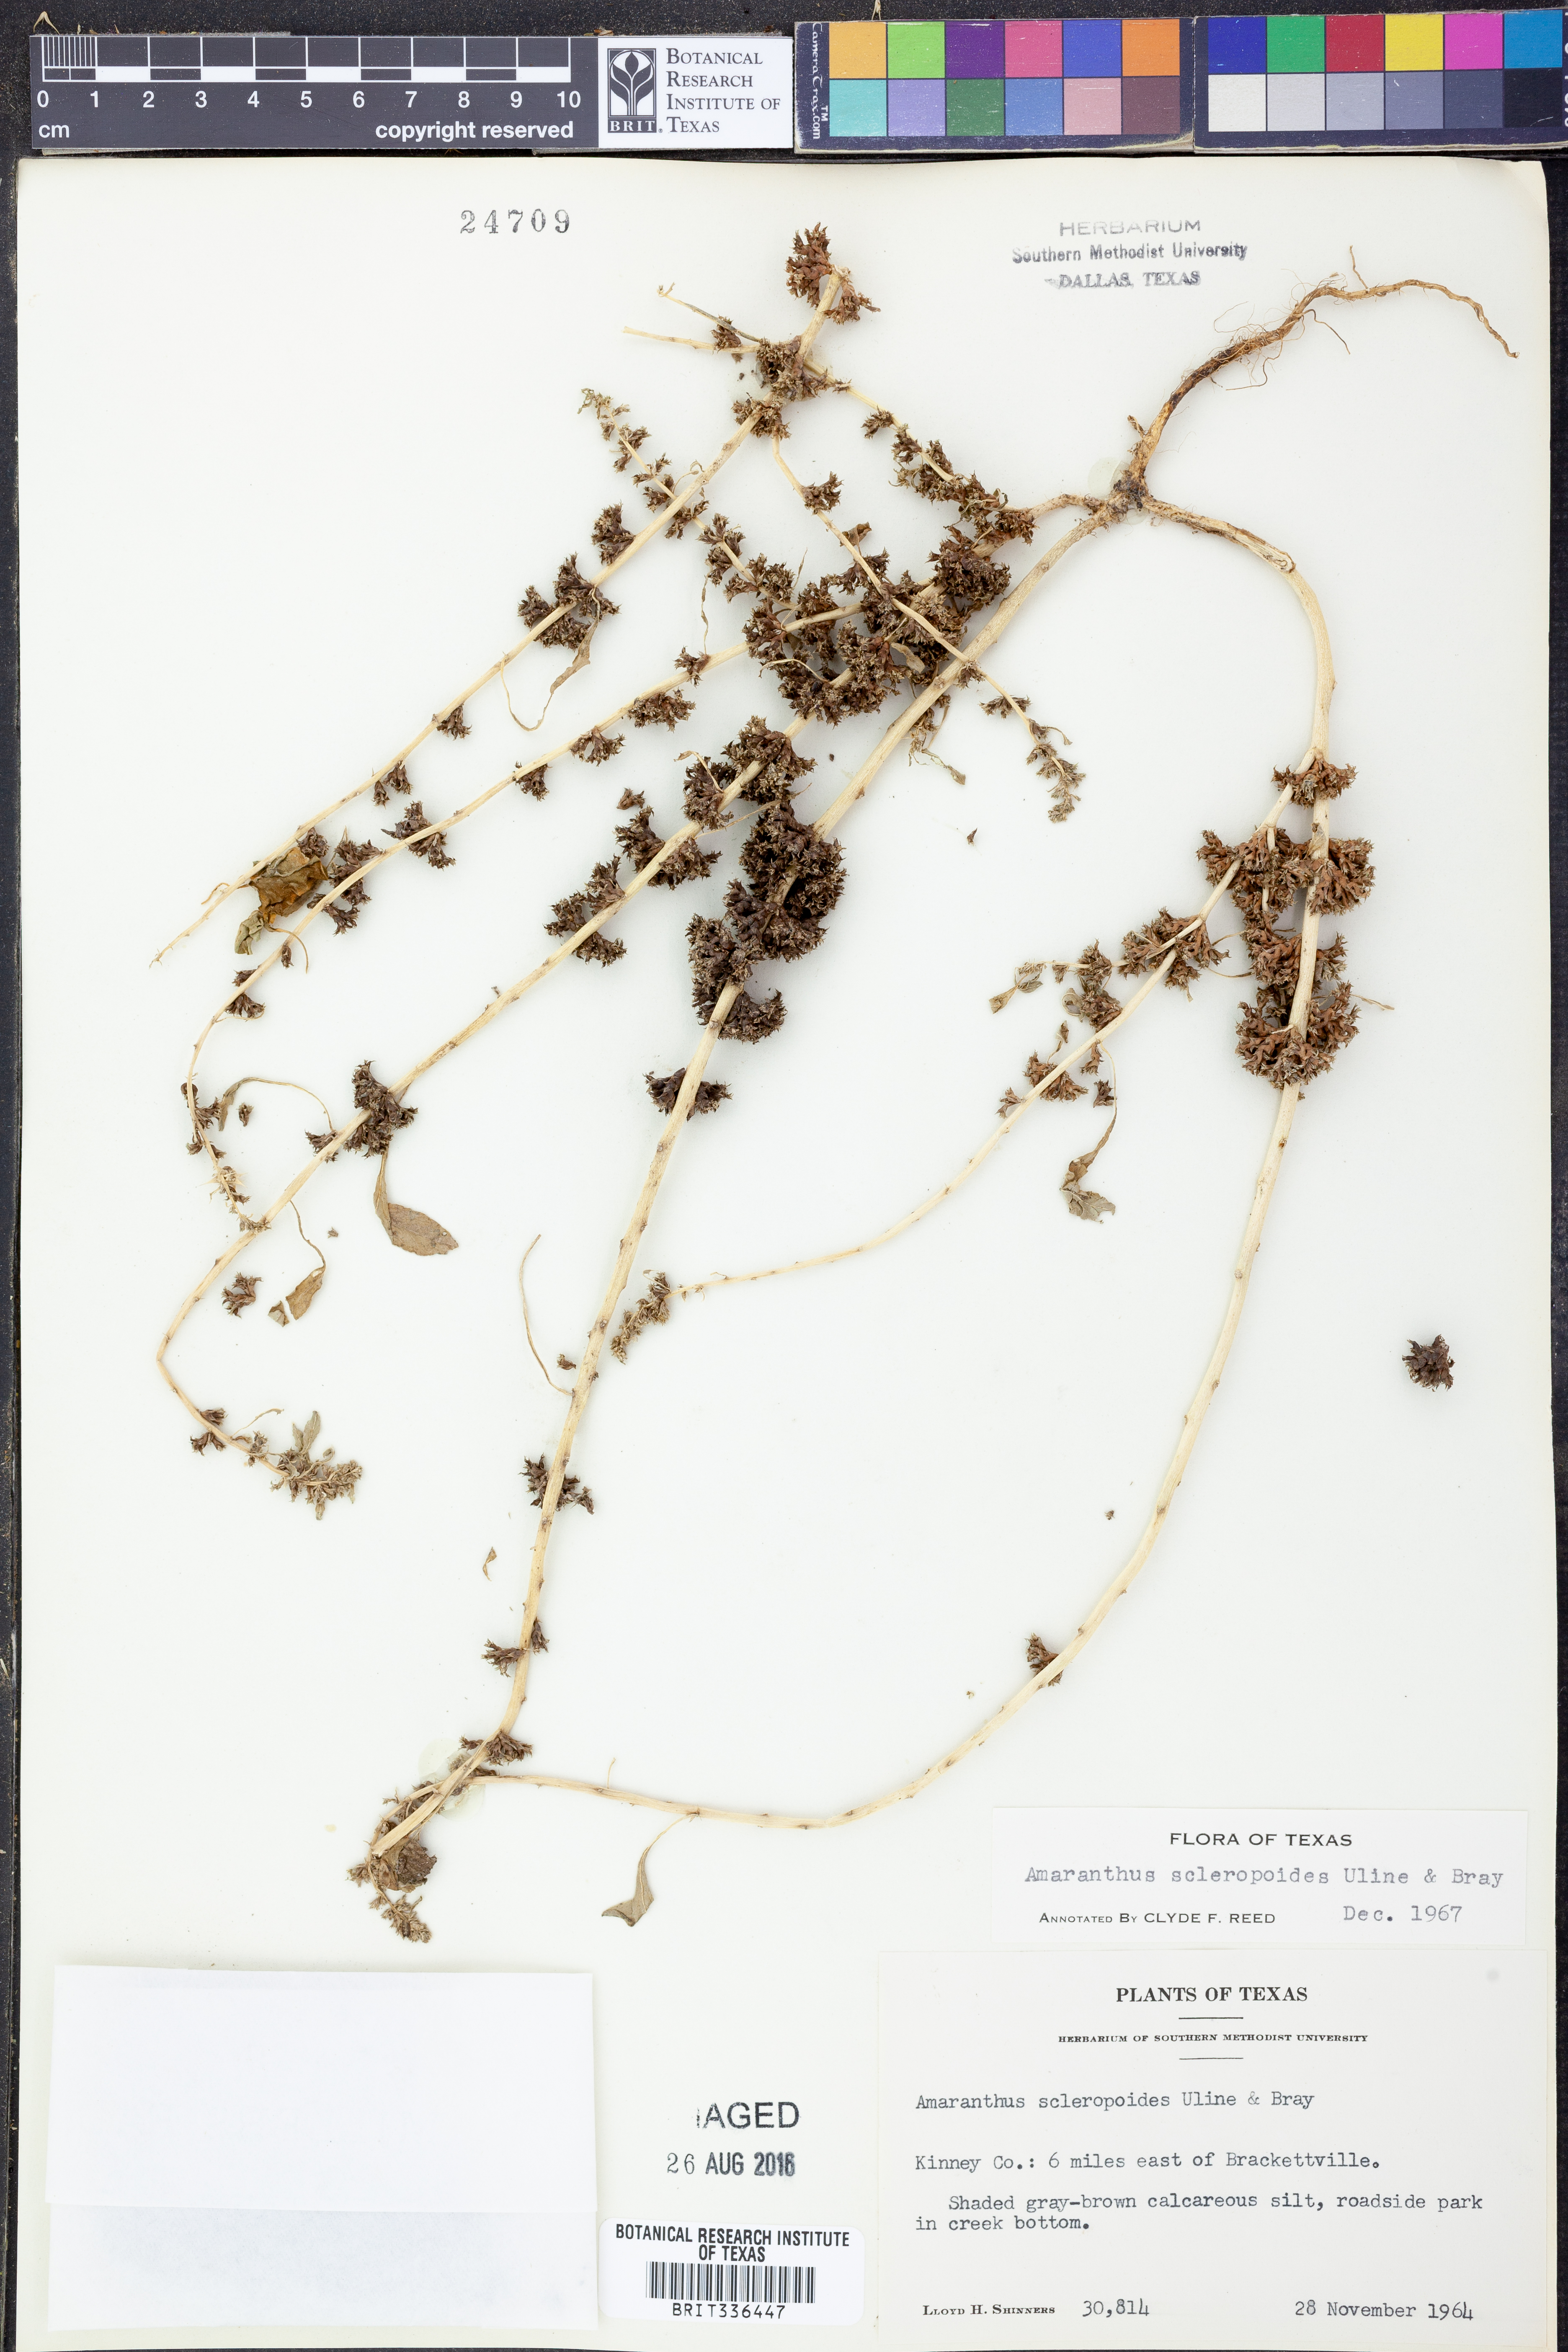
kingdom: Plantae
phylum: Tracheophyta
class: Magnoliopsida
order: Caryophyllales
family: Amaranthaceae
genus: Amaranthus
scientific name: Amaranthus scleropoides
